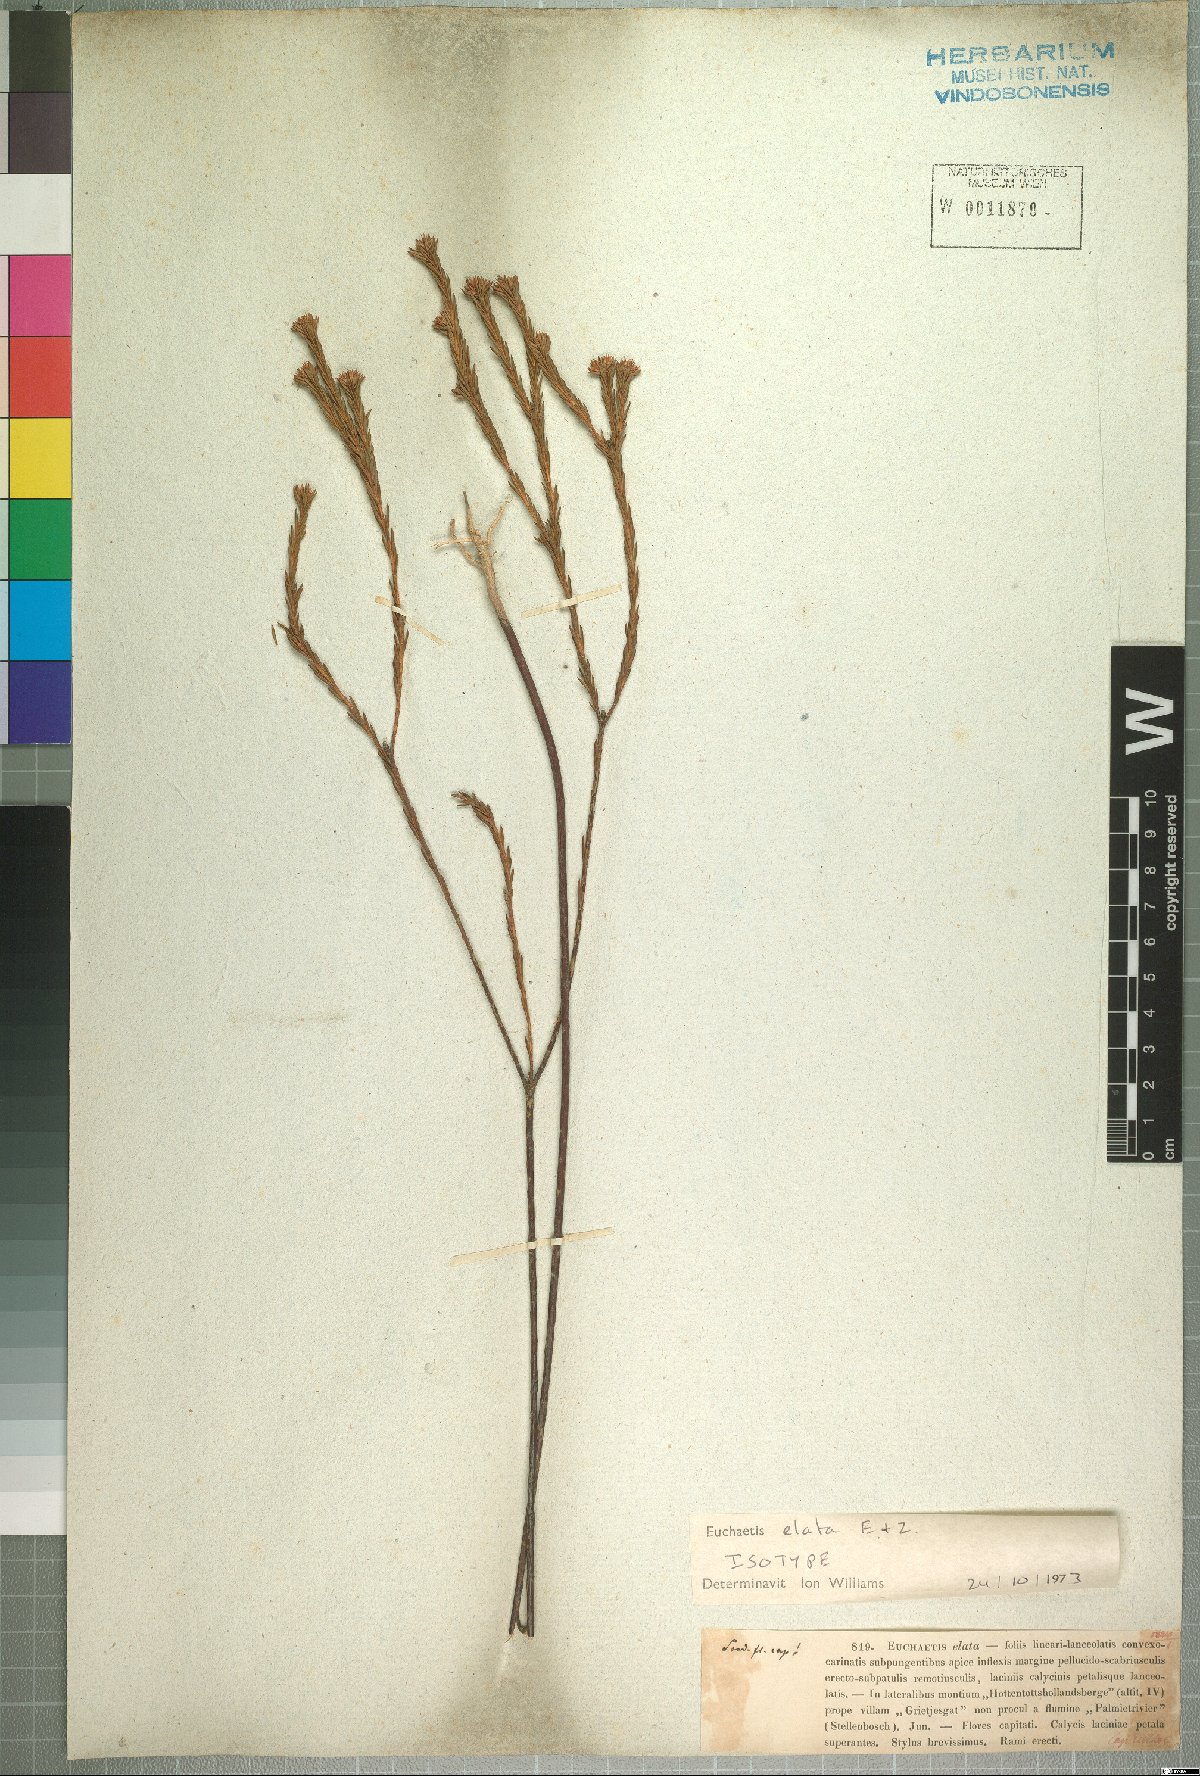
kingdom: Plantae
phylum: Tracheophyta
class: Magnoliopsida
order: Sapindales
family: Rutaceae
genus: Euchaetis
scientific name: Euchaetis elata
